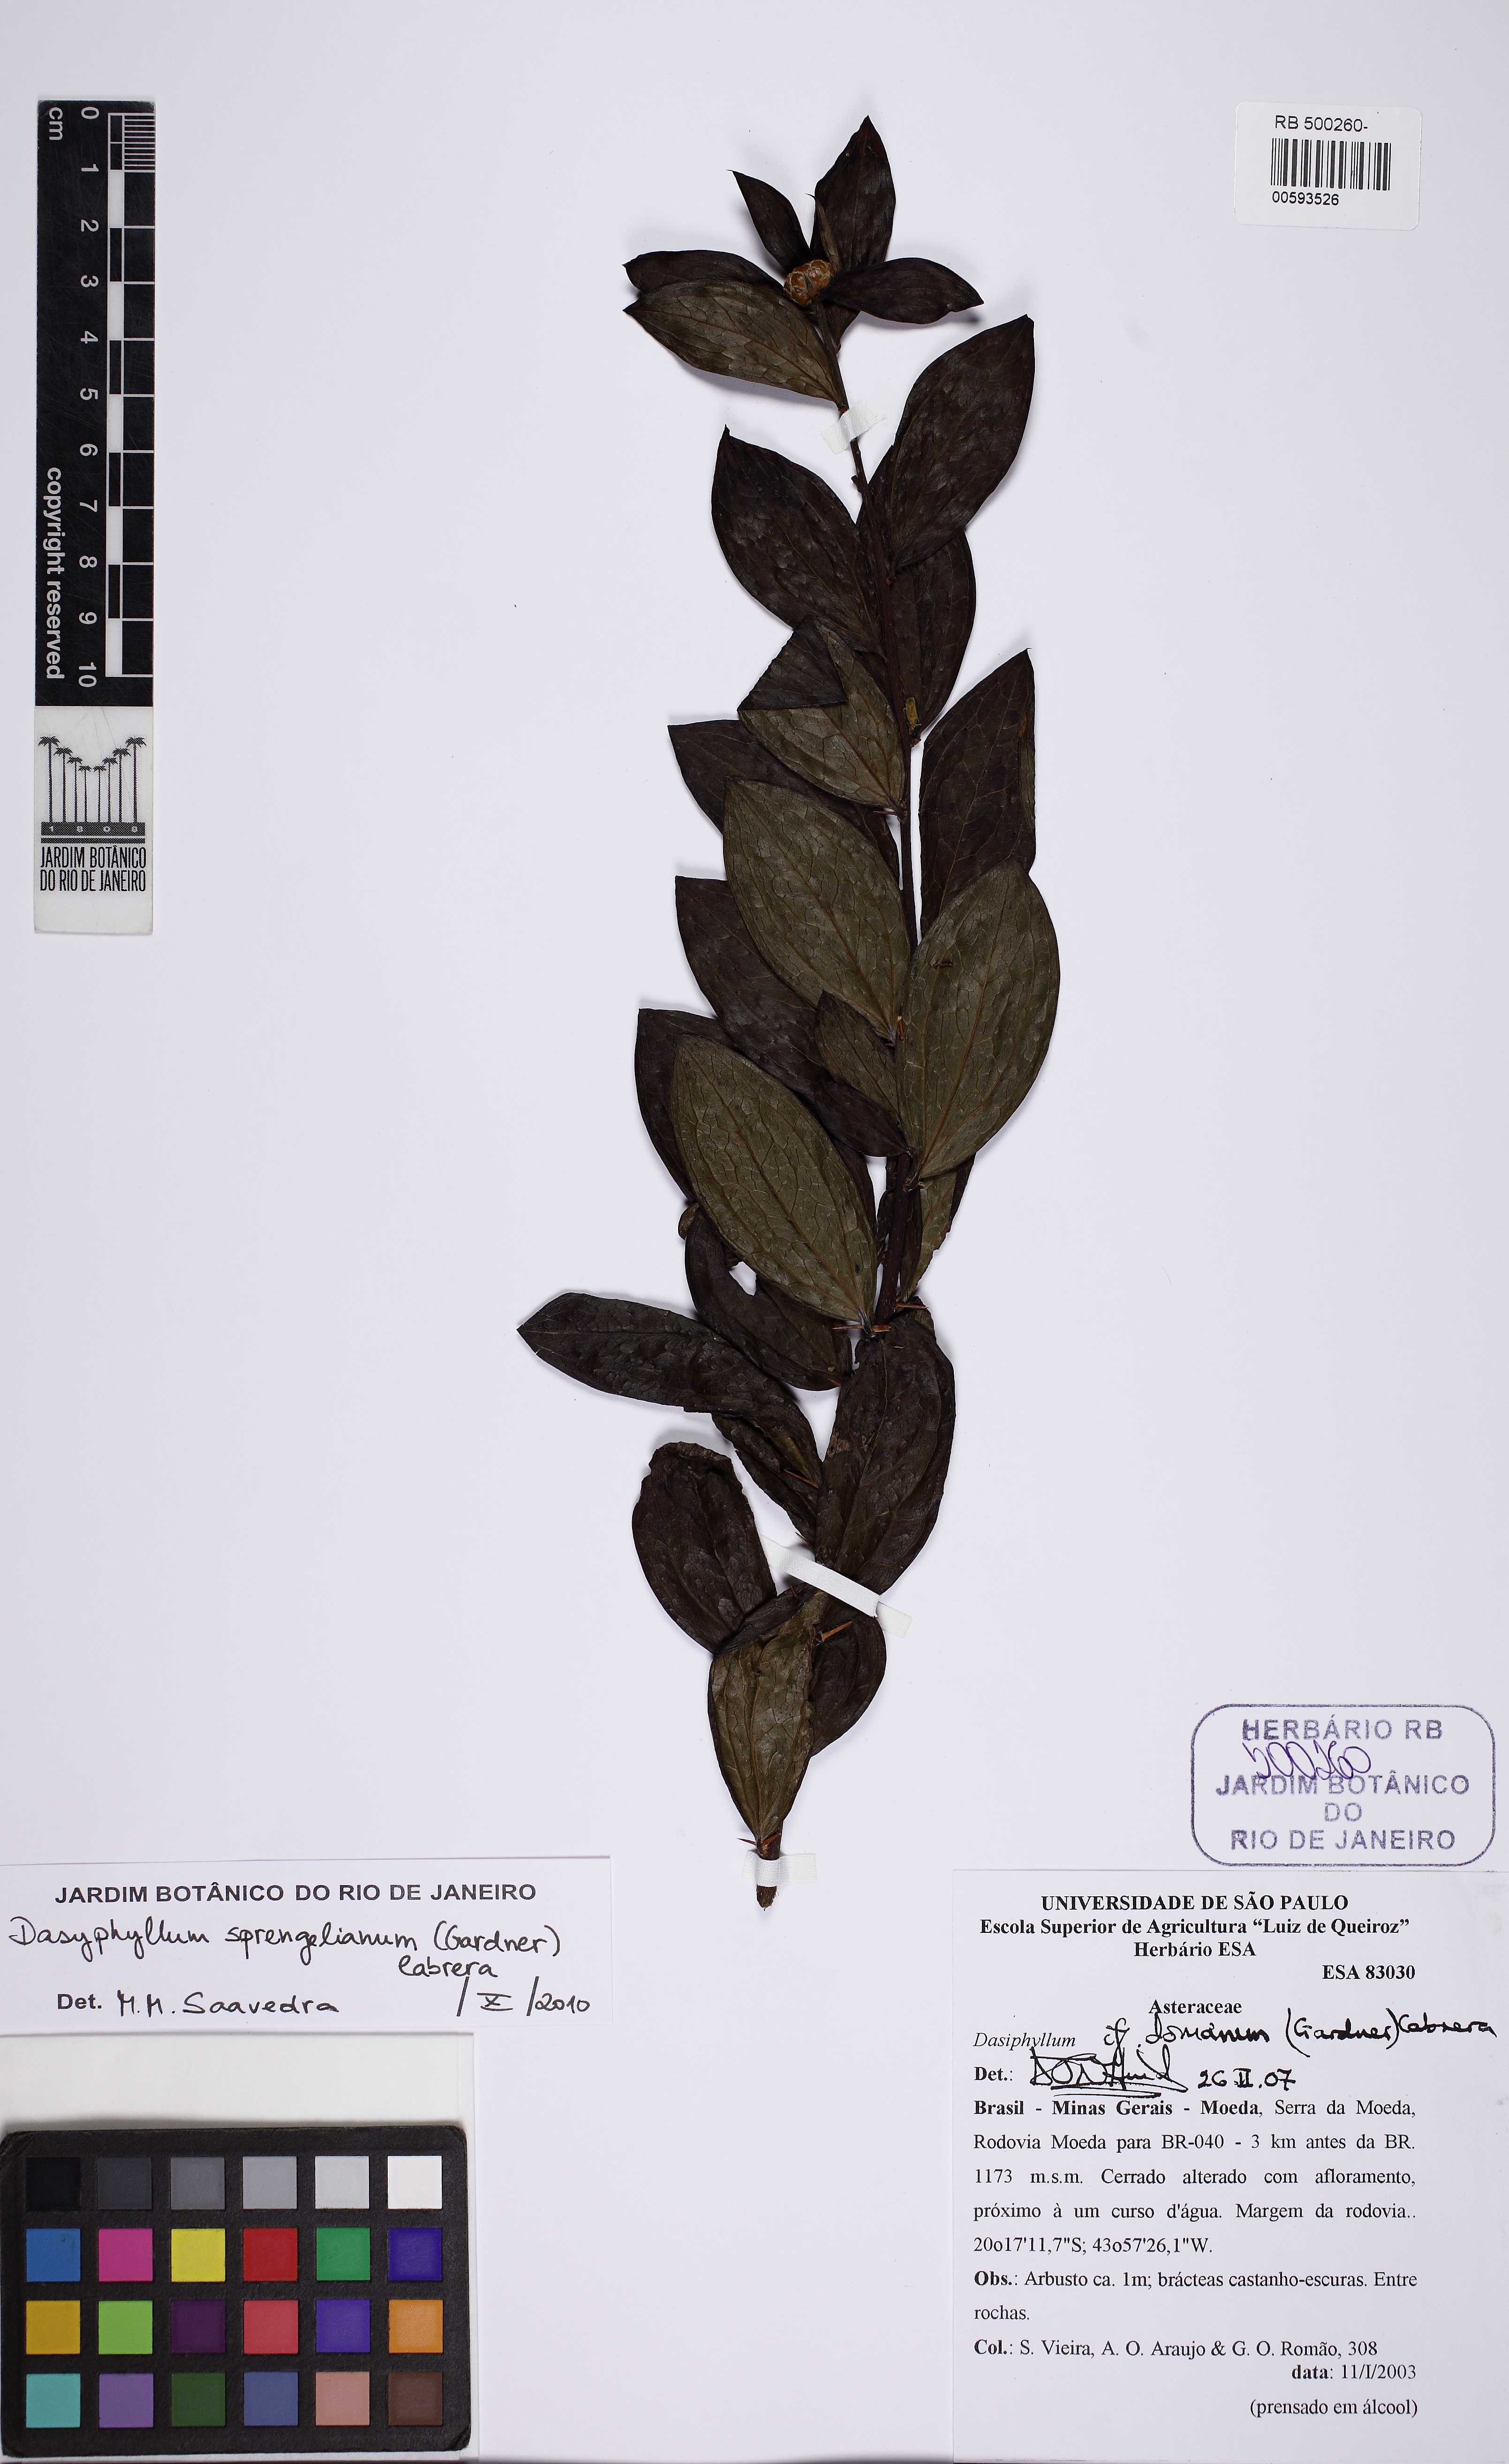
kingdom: Plantae
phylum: Tracheophyta
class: Magnoliopsida
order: Asterales
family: Asteraceae
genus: Dasyphyllum
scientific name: Dasyphyllum sprengelianum
